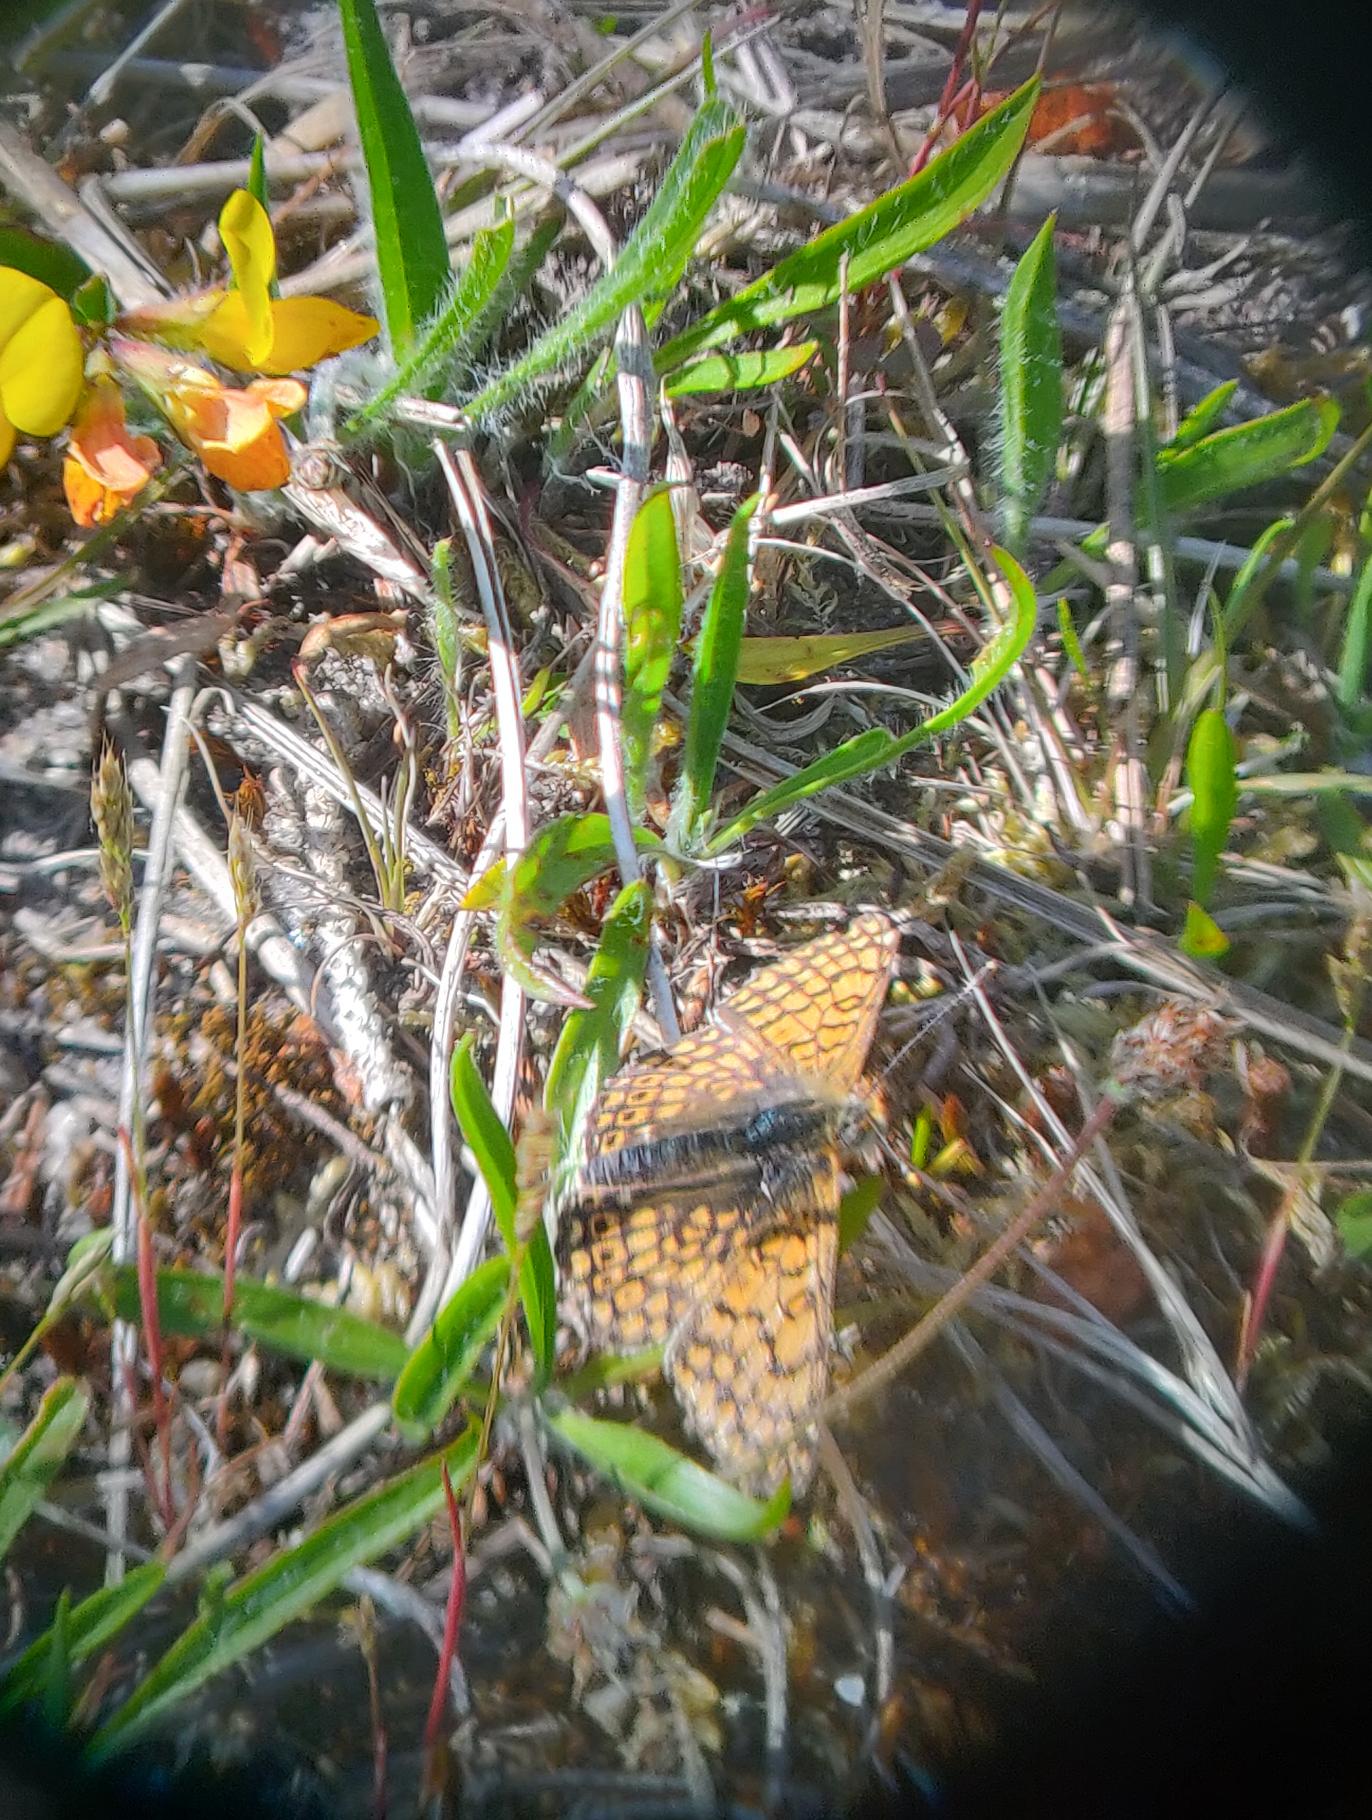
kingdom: Animalia
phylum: Arthropoda
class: Insecta
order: Lepidoptera
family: Nymphalidae
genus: Melitaea
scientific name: Melitaea cinxia
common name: Okkergul pletvinge
